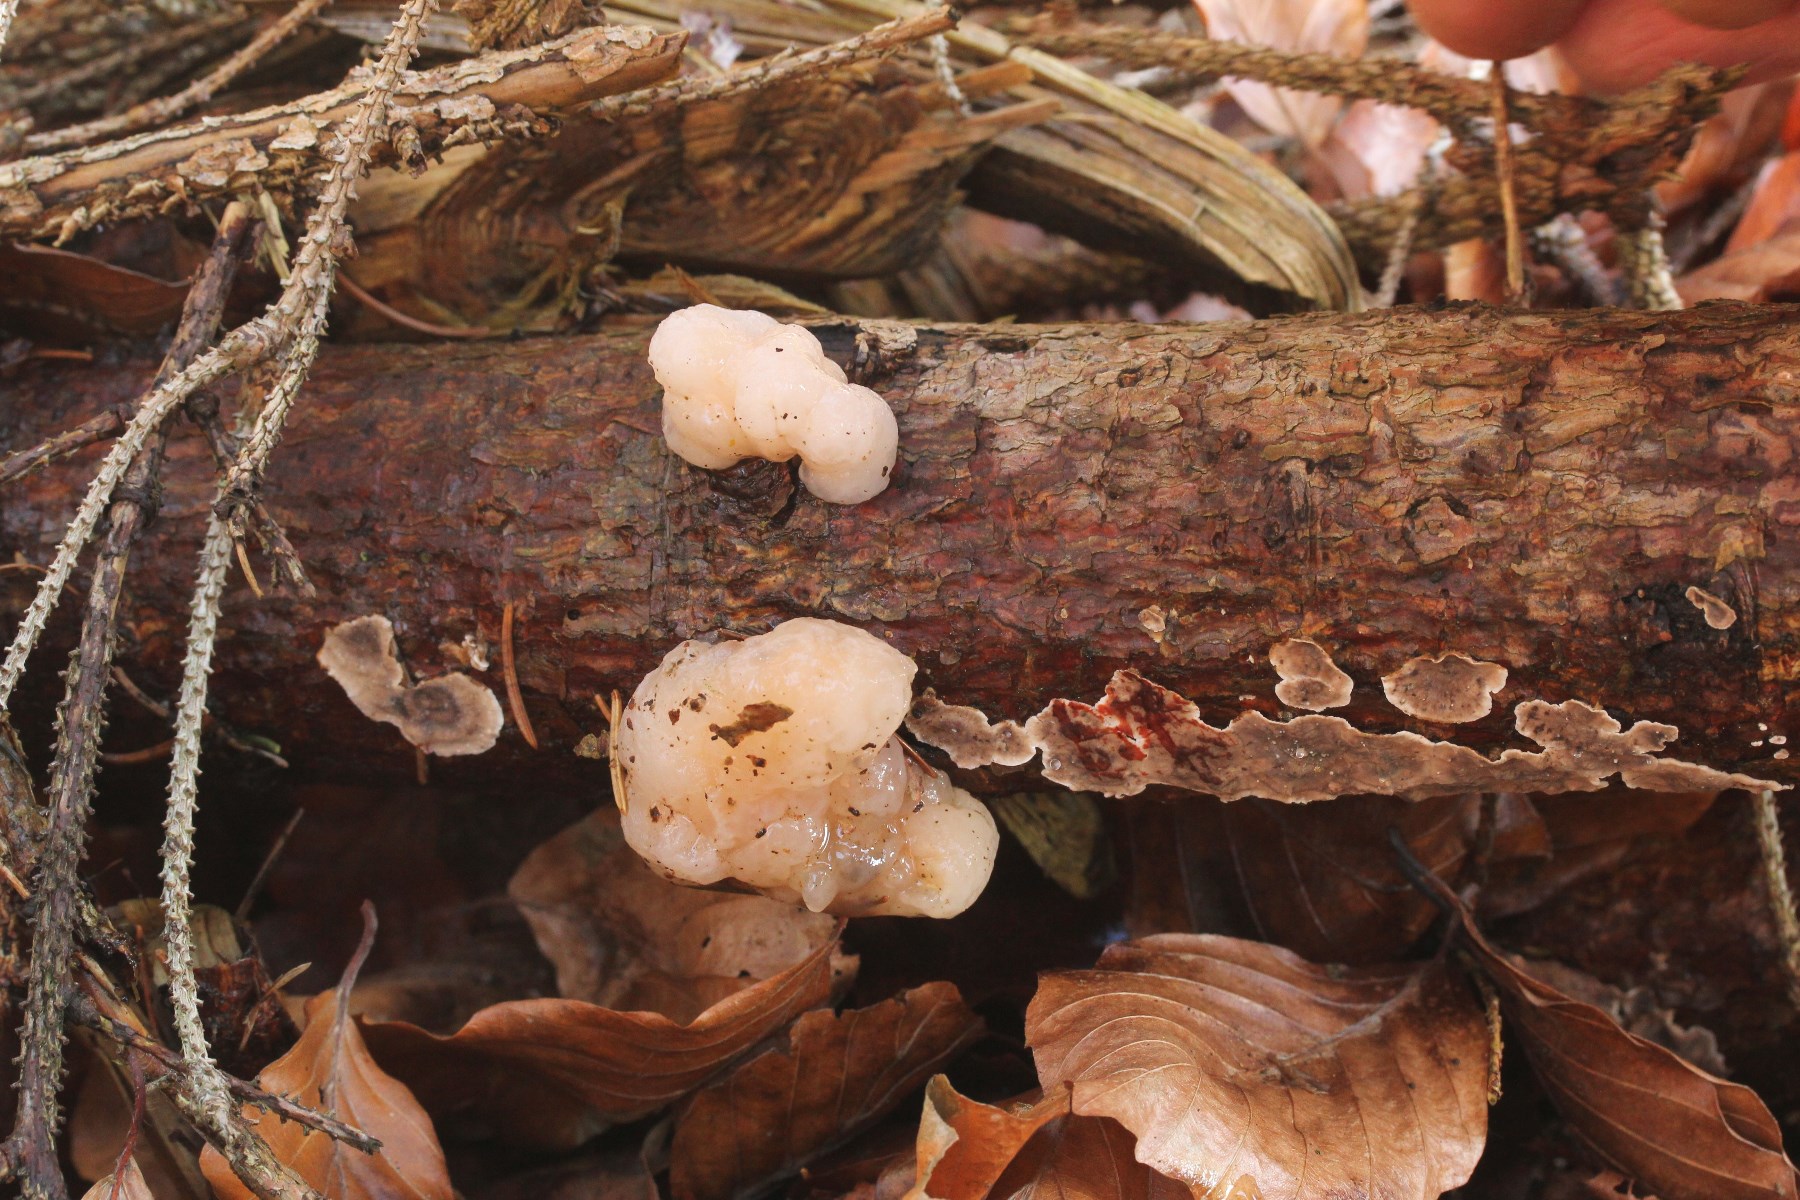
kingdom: Fungi
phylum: Basidiomycota
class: Tremellomycetes
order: Tremellales
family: Naemateliaceae
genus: Naematelia
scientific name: Naematelia encephala
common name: fyrre-bævresvamp
